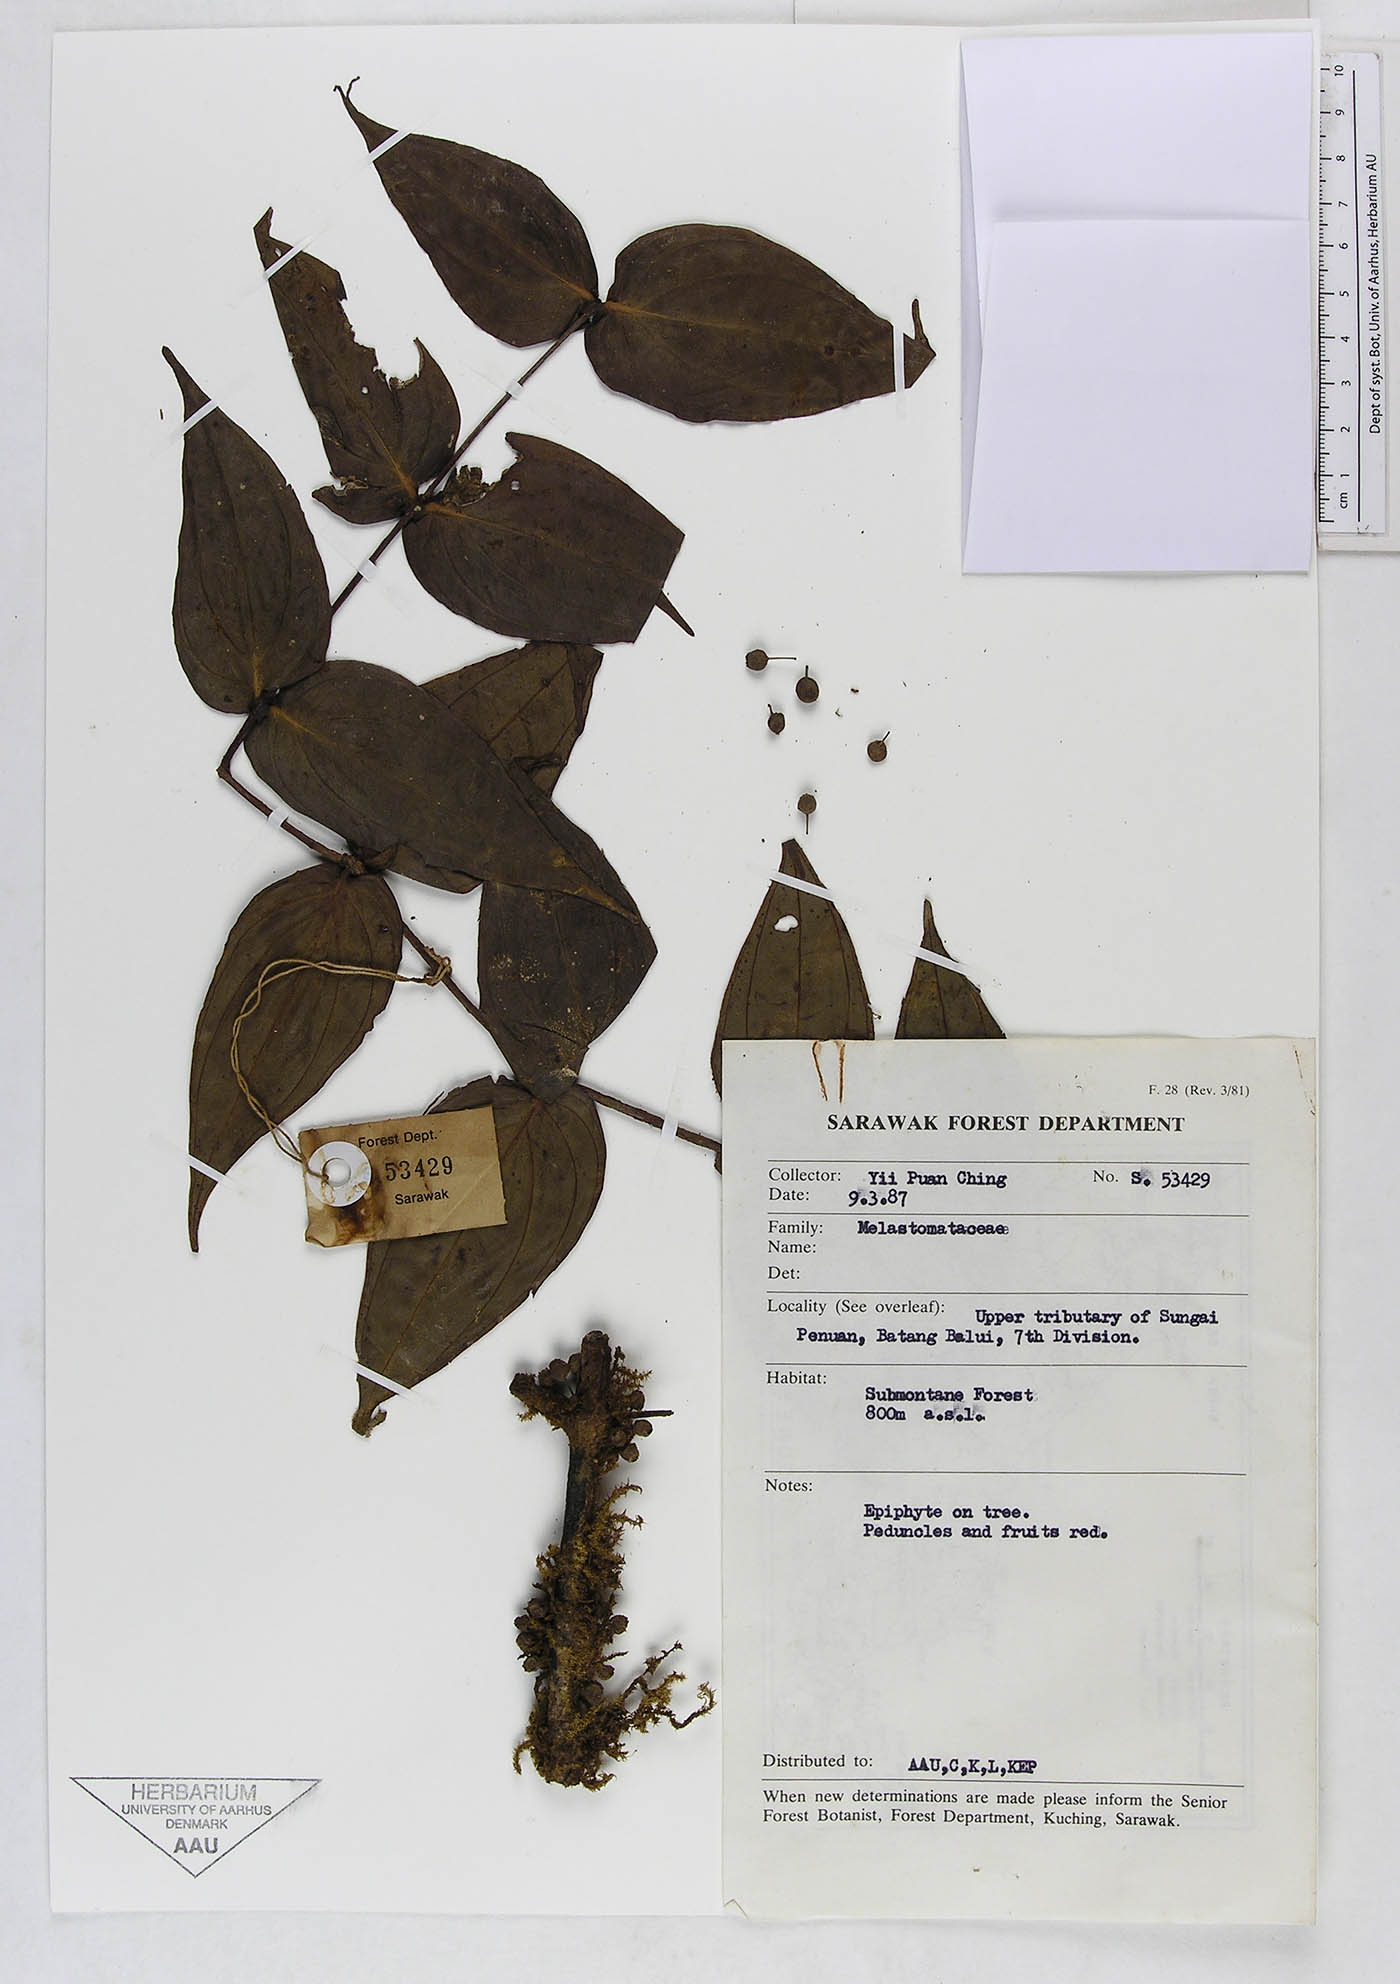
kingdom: Plantae
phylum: Tracheophyta
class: Magnoliopsida
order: Myrtales
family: Melastomataceae
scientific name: Melastomataceae
